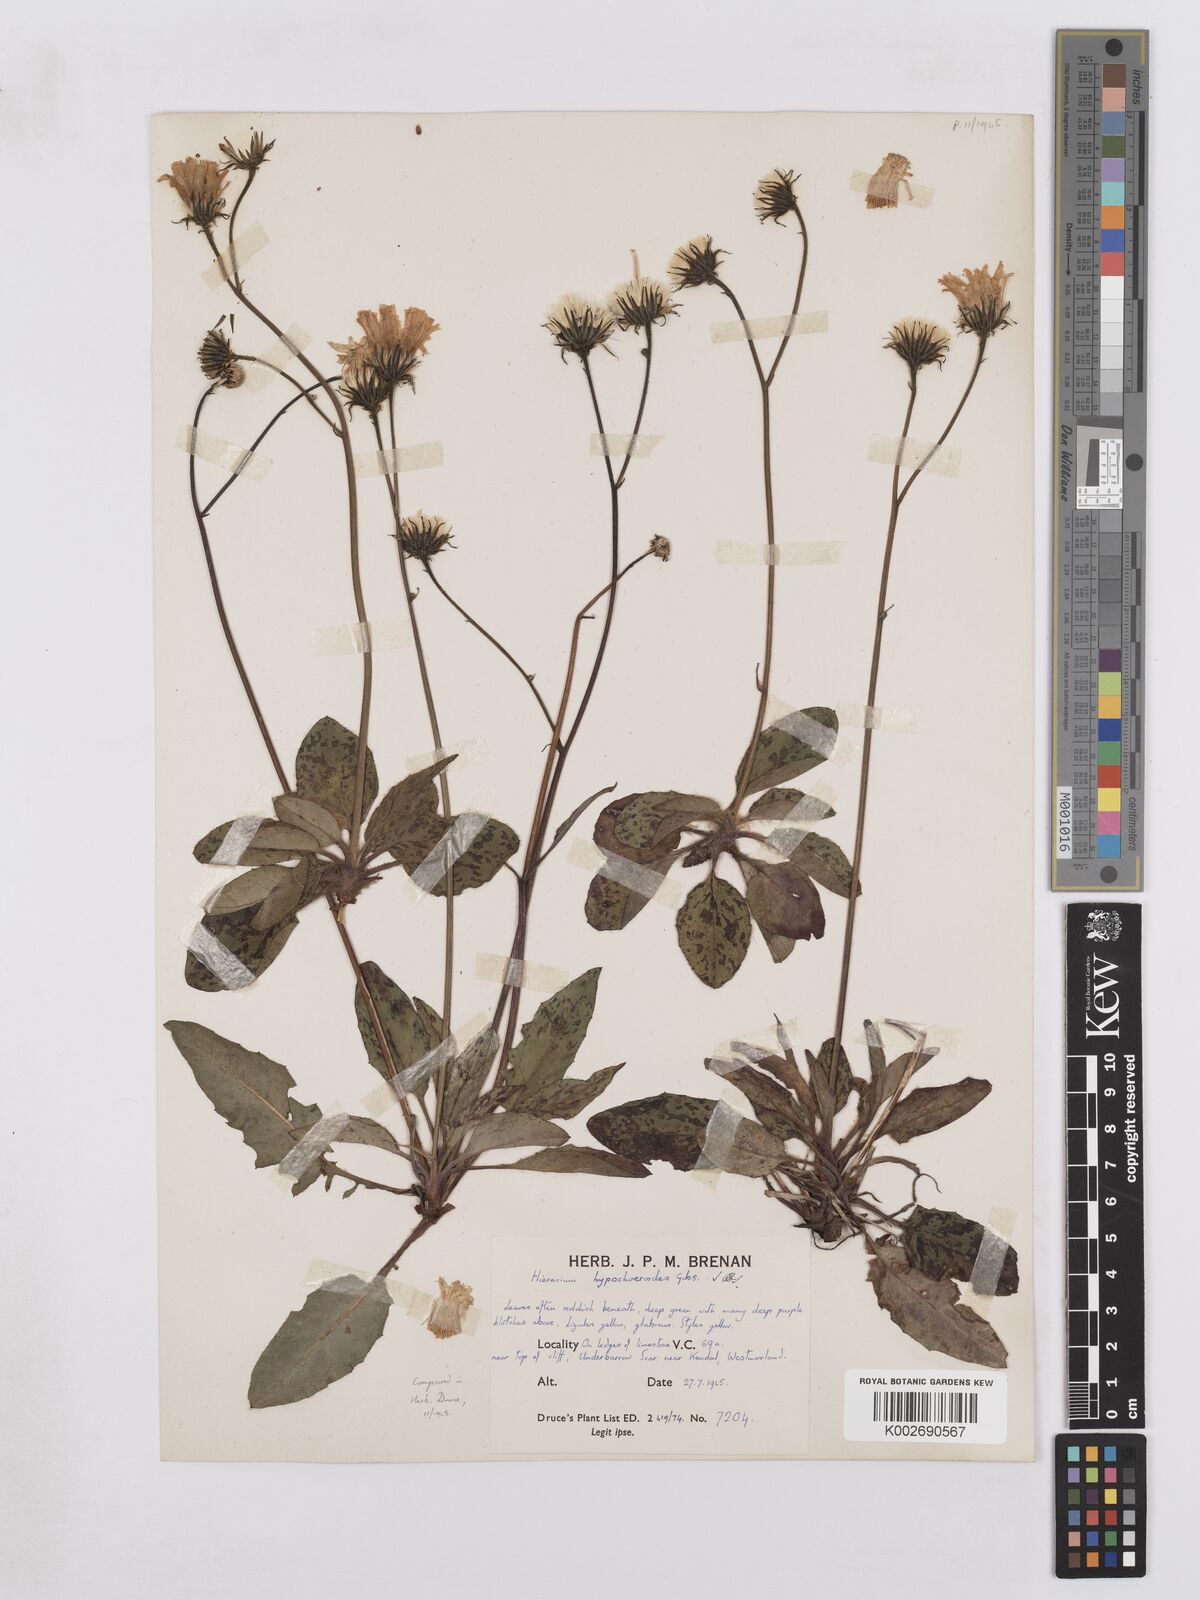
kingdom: Plantae
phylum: Tracheophyta
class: Magnoliopsida
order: Asterales
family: Asteraceae
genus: Hieracium
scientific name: Hieracium hypochoeroides
